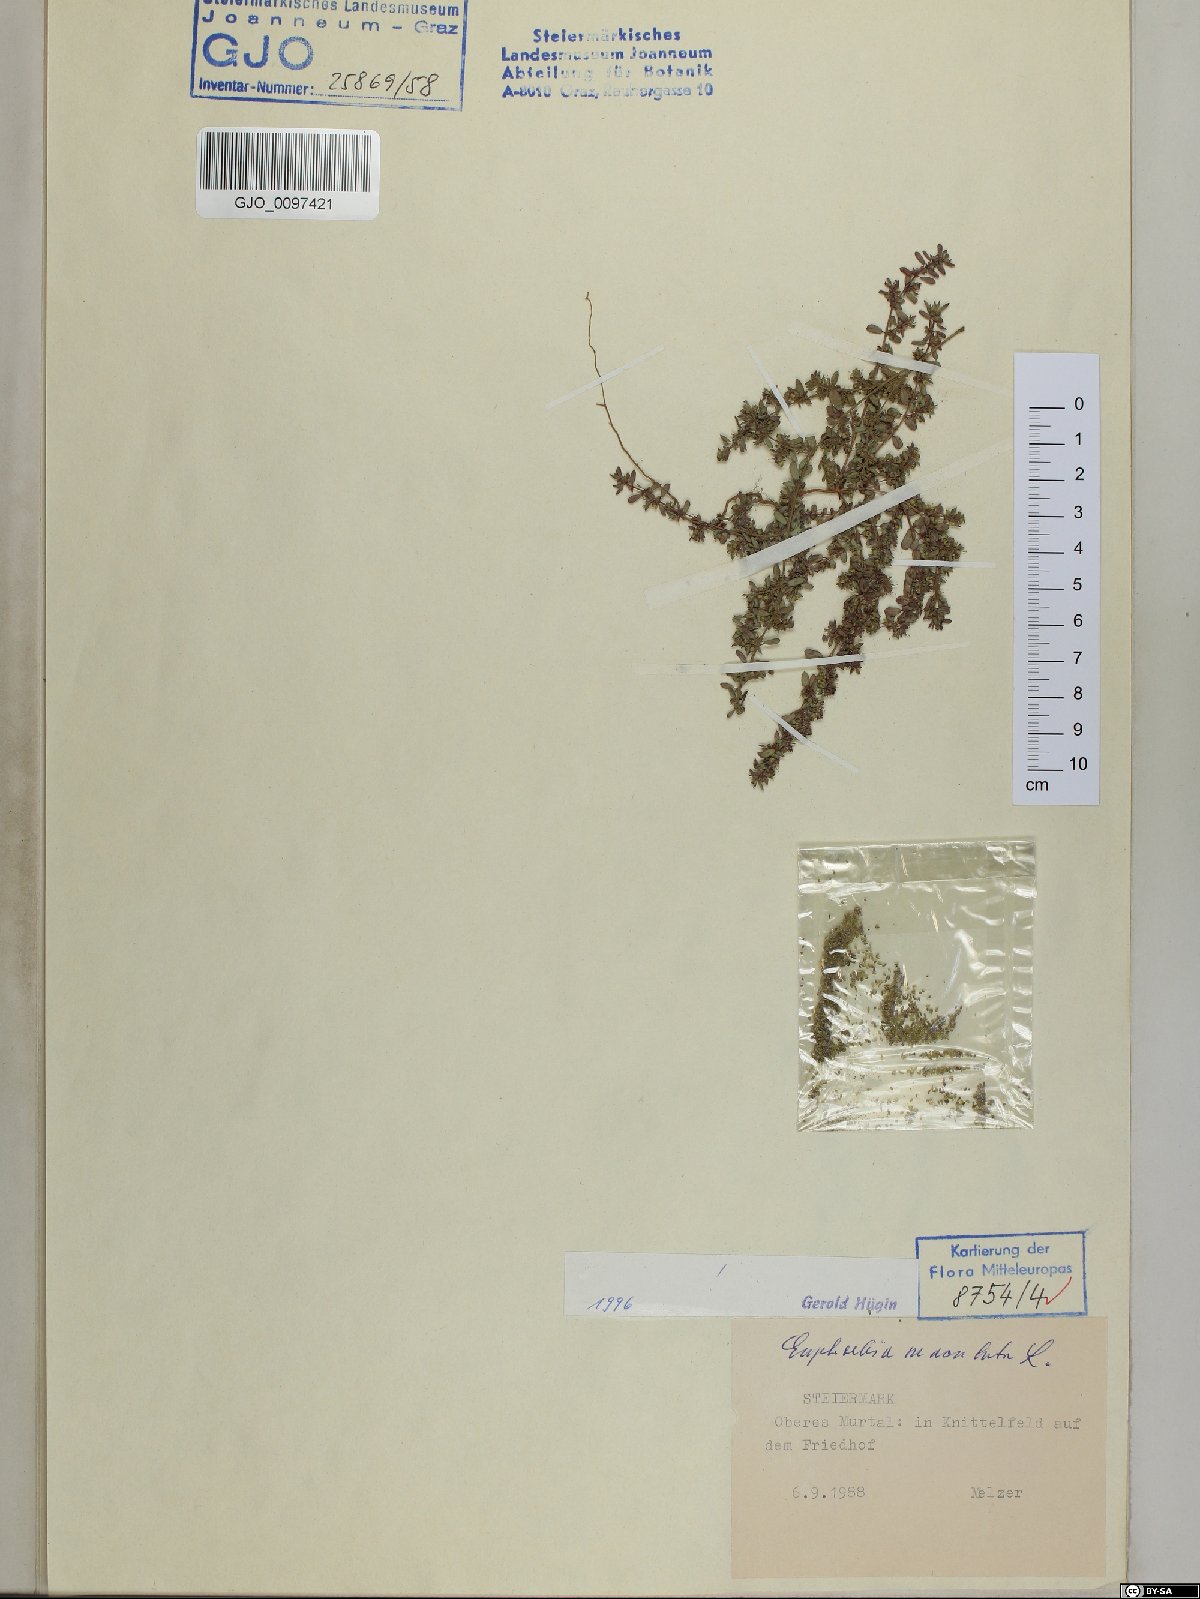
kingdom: Plantae
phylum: Tracheophyta
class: Magnoliopsida
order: Malpighiales
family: Euphorbiaceae
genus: Euphorbia
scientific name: Euphorbia maculata
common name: Spotted spurge
